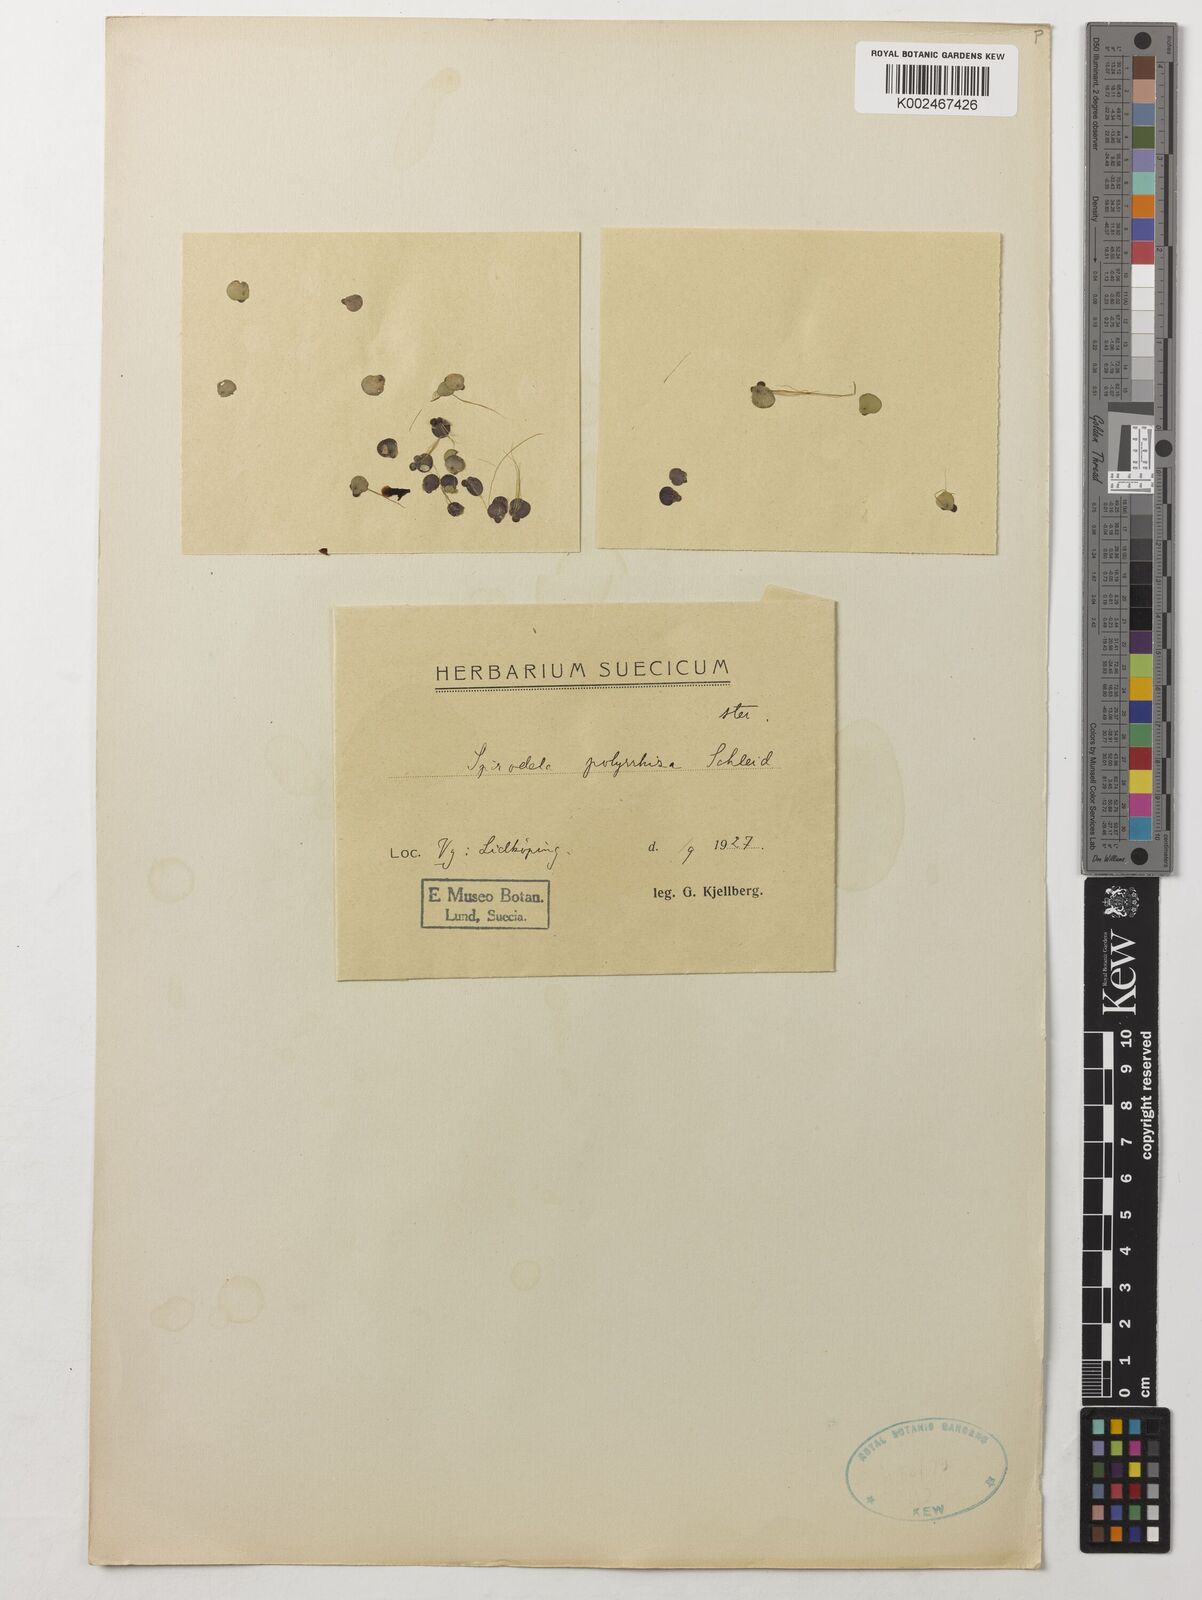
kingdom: Plantae
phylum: Tracheophyta
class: Liliopsida
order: Alismatales
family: Araceae
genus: Spirodela
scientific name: Spirodela polyrhiza
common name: Great duckweed
